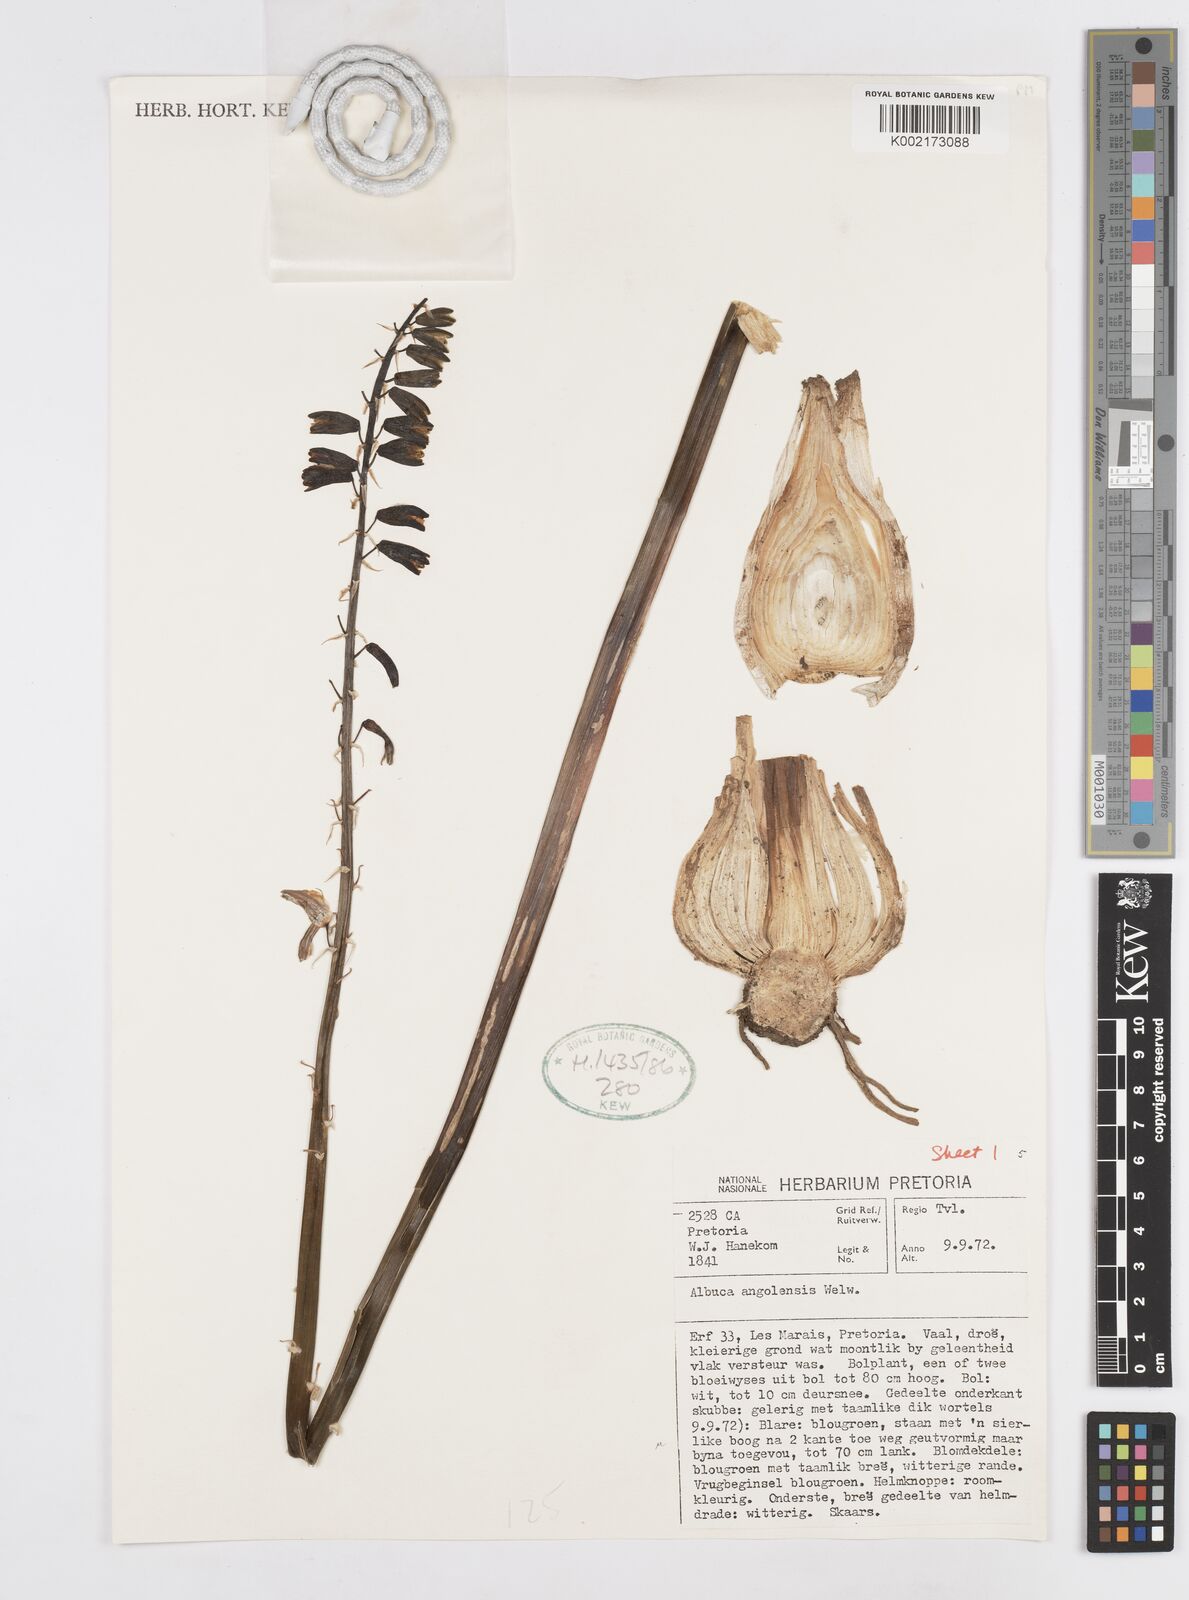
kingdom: Plantae
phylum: Tracheophyta
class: Liliopsida
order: Asparagales
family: Asparagaceae
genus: Albuca
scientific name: Albuca abyssinica
